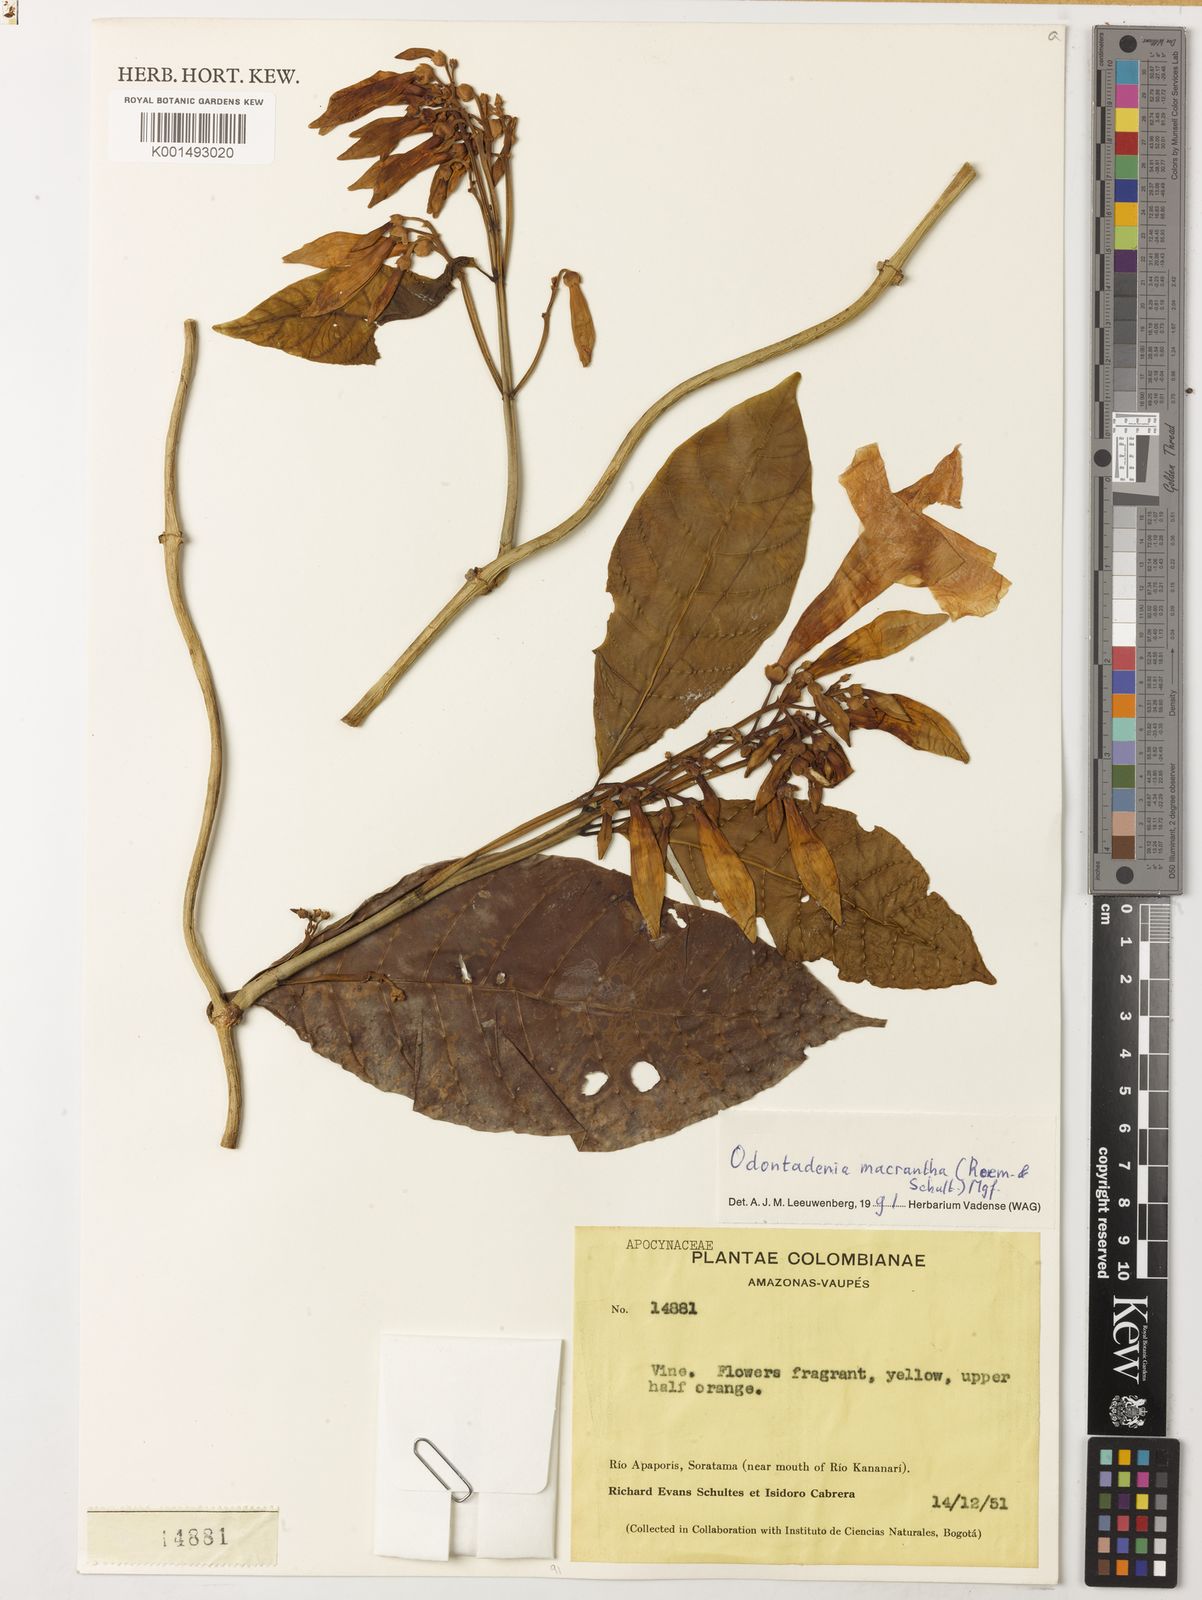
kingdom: Plantae
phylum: Tracheophyta
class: Magnoliopsida
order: Gentianales
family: Apocynaceae
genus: Odontadenia
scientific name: Odontadenia semidigyna
